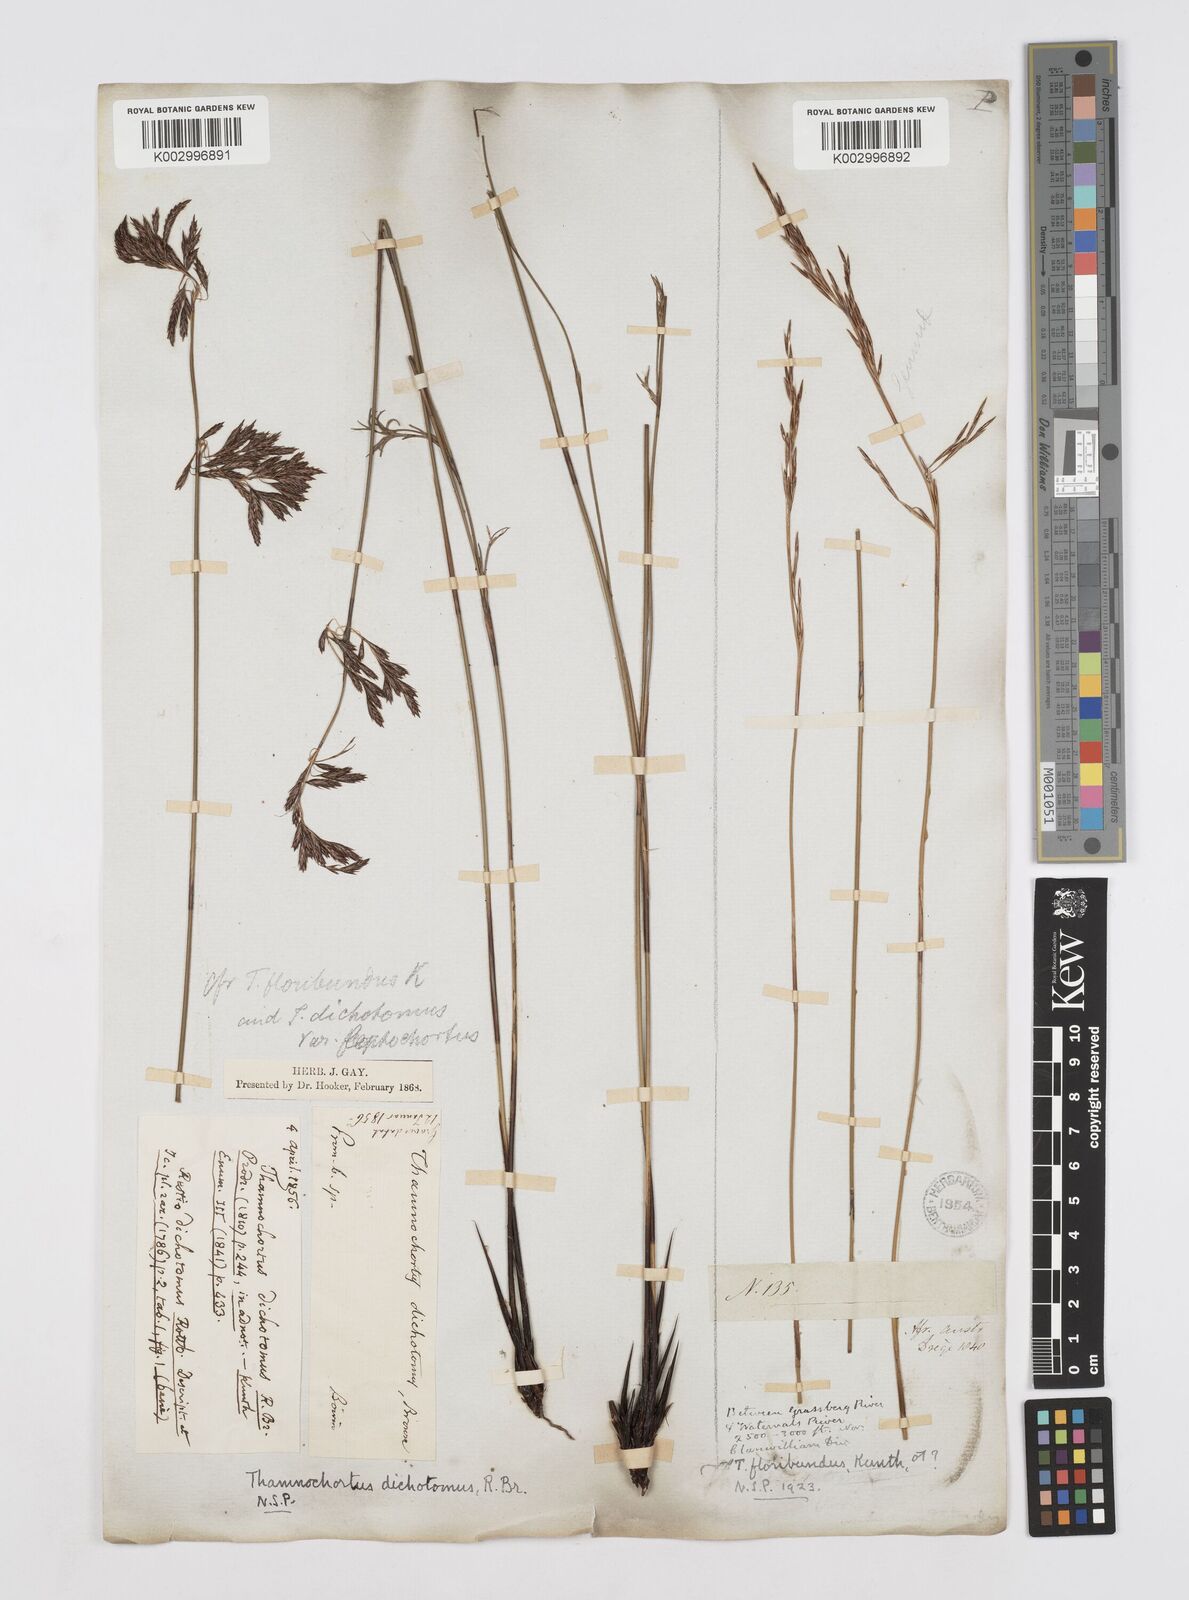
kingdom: Plantae
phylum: Tracheophyta
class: Liliopsida
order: Poales
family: Restionaceae
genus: Thamnochortus
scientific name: Thamnochortus lucens
